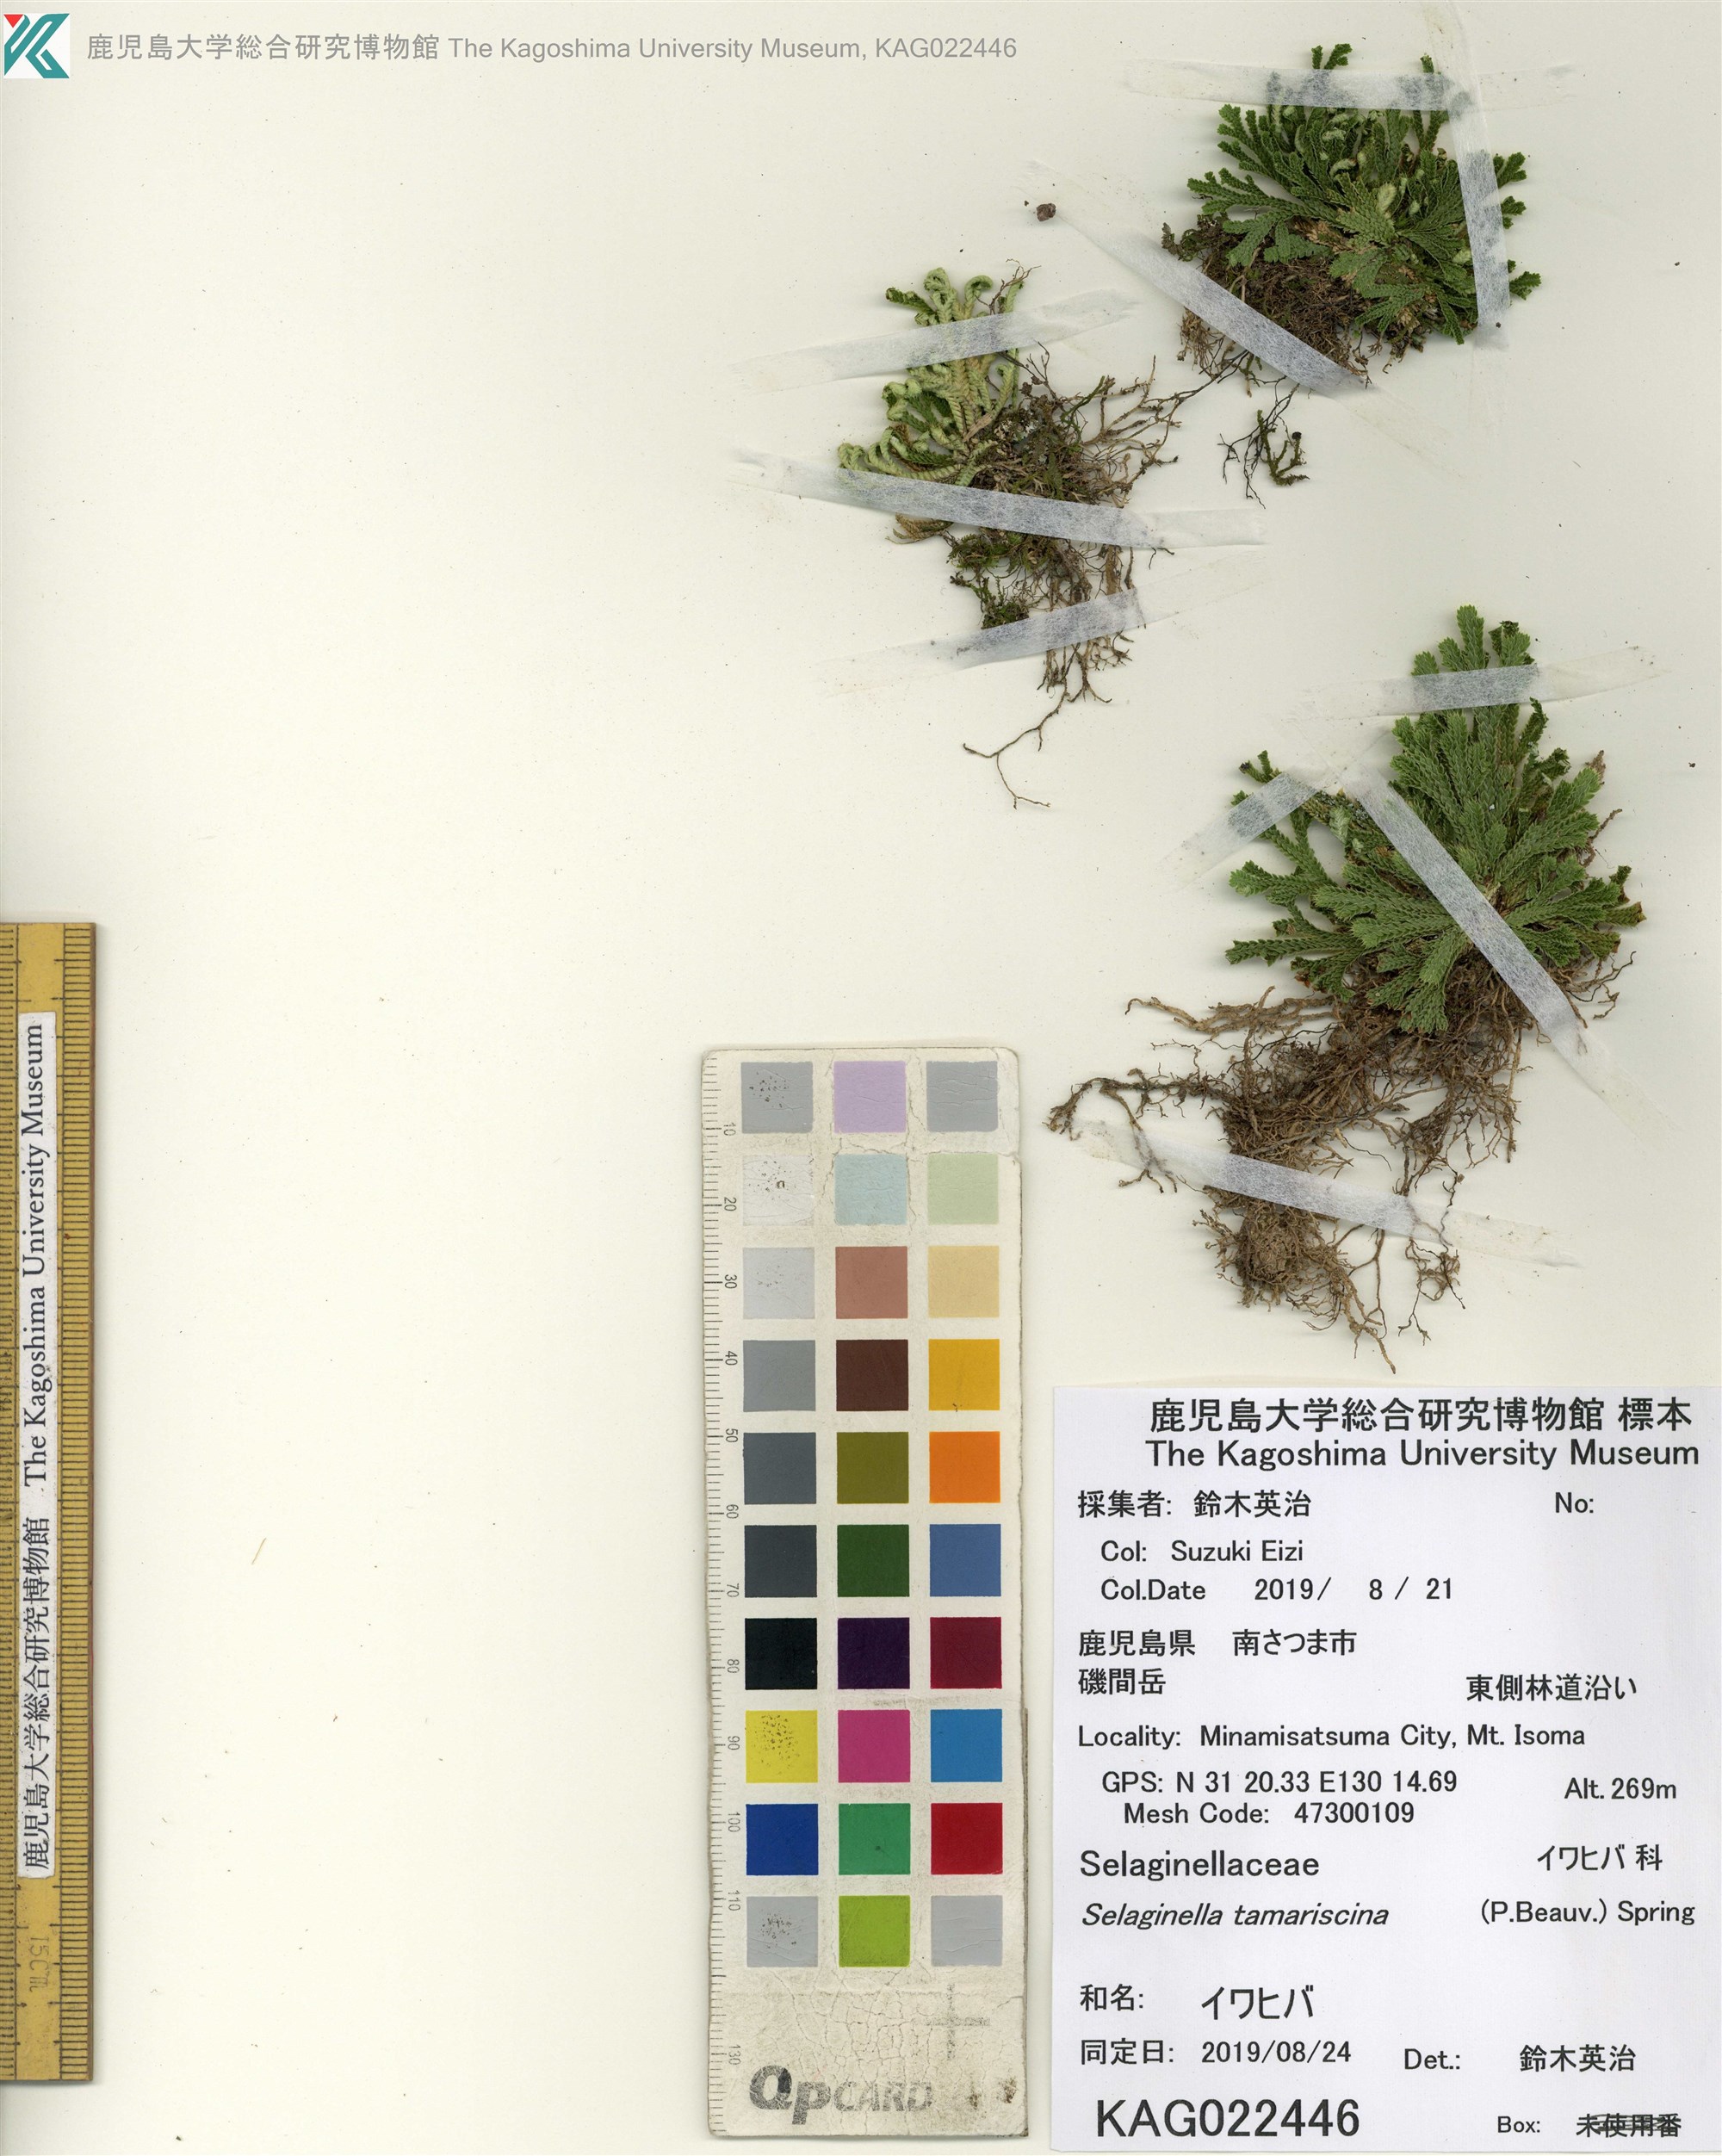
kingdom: Plantae
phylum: Tracheophyta
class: Lycopodiopsida
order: Selaginellales
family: Selaginellaceae
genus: Selaginella
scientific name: Selaginella tamariscina
